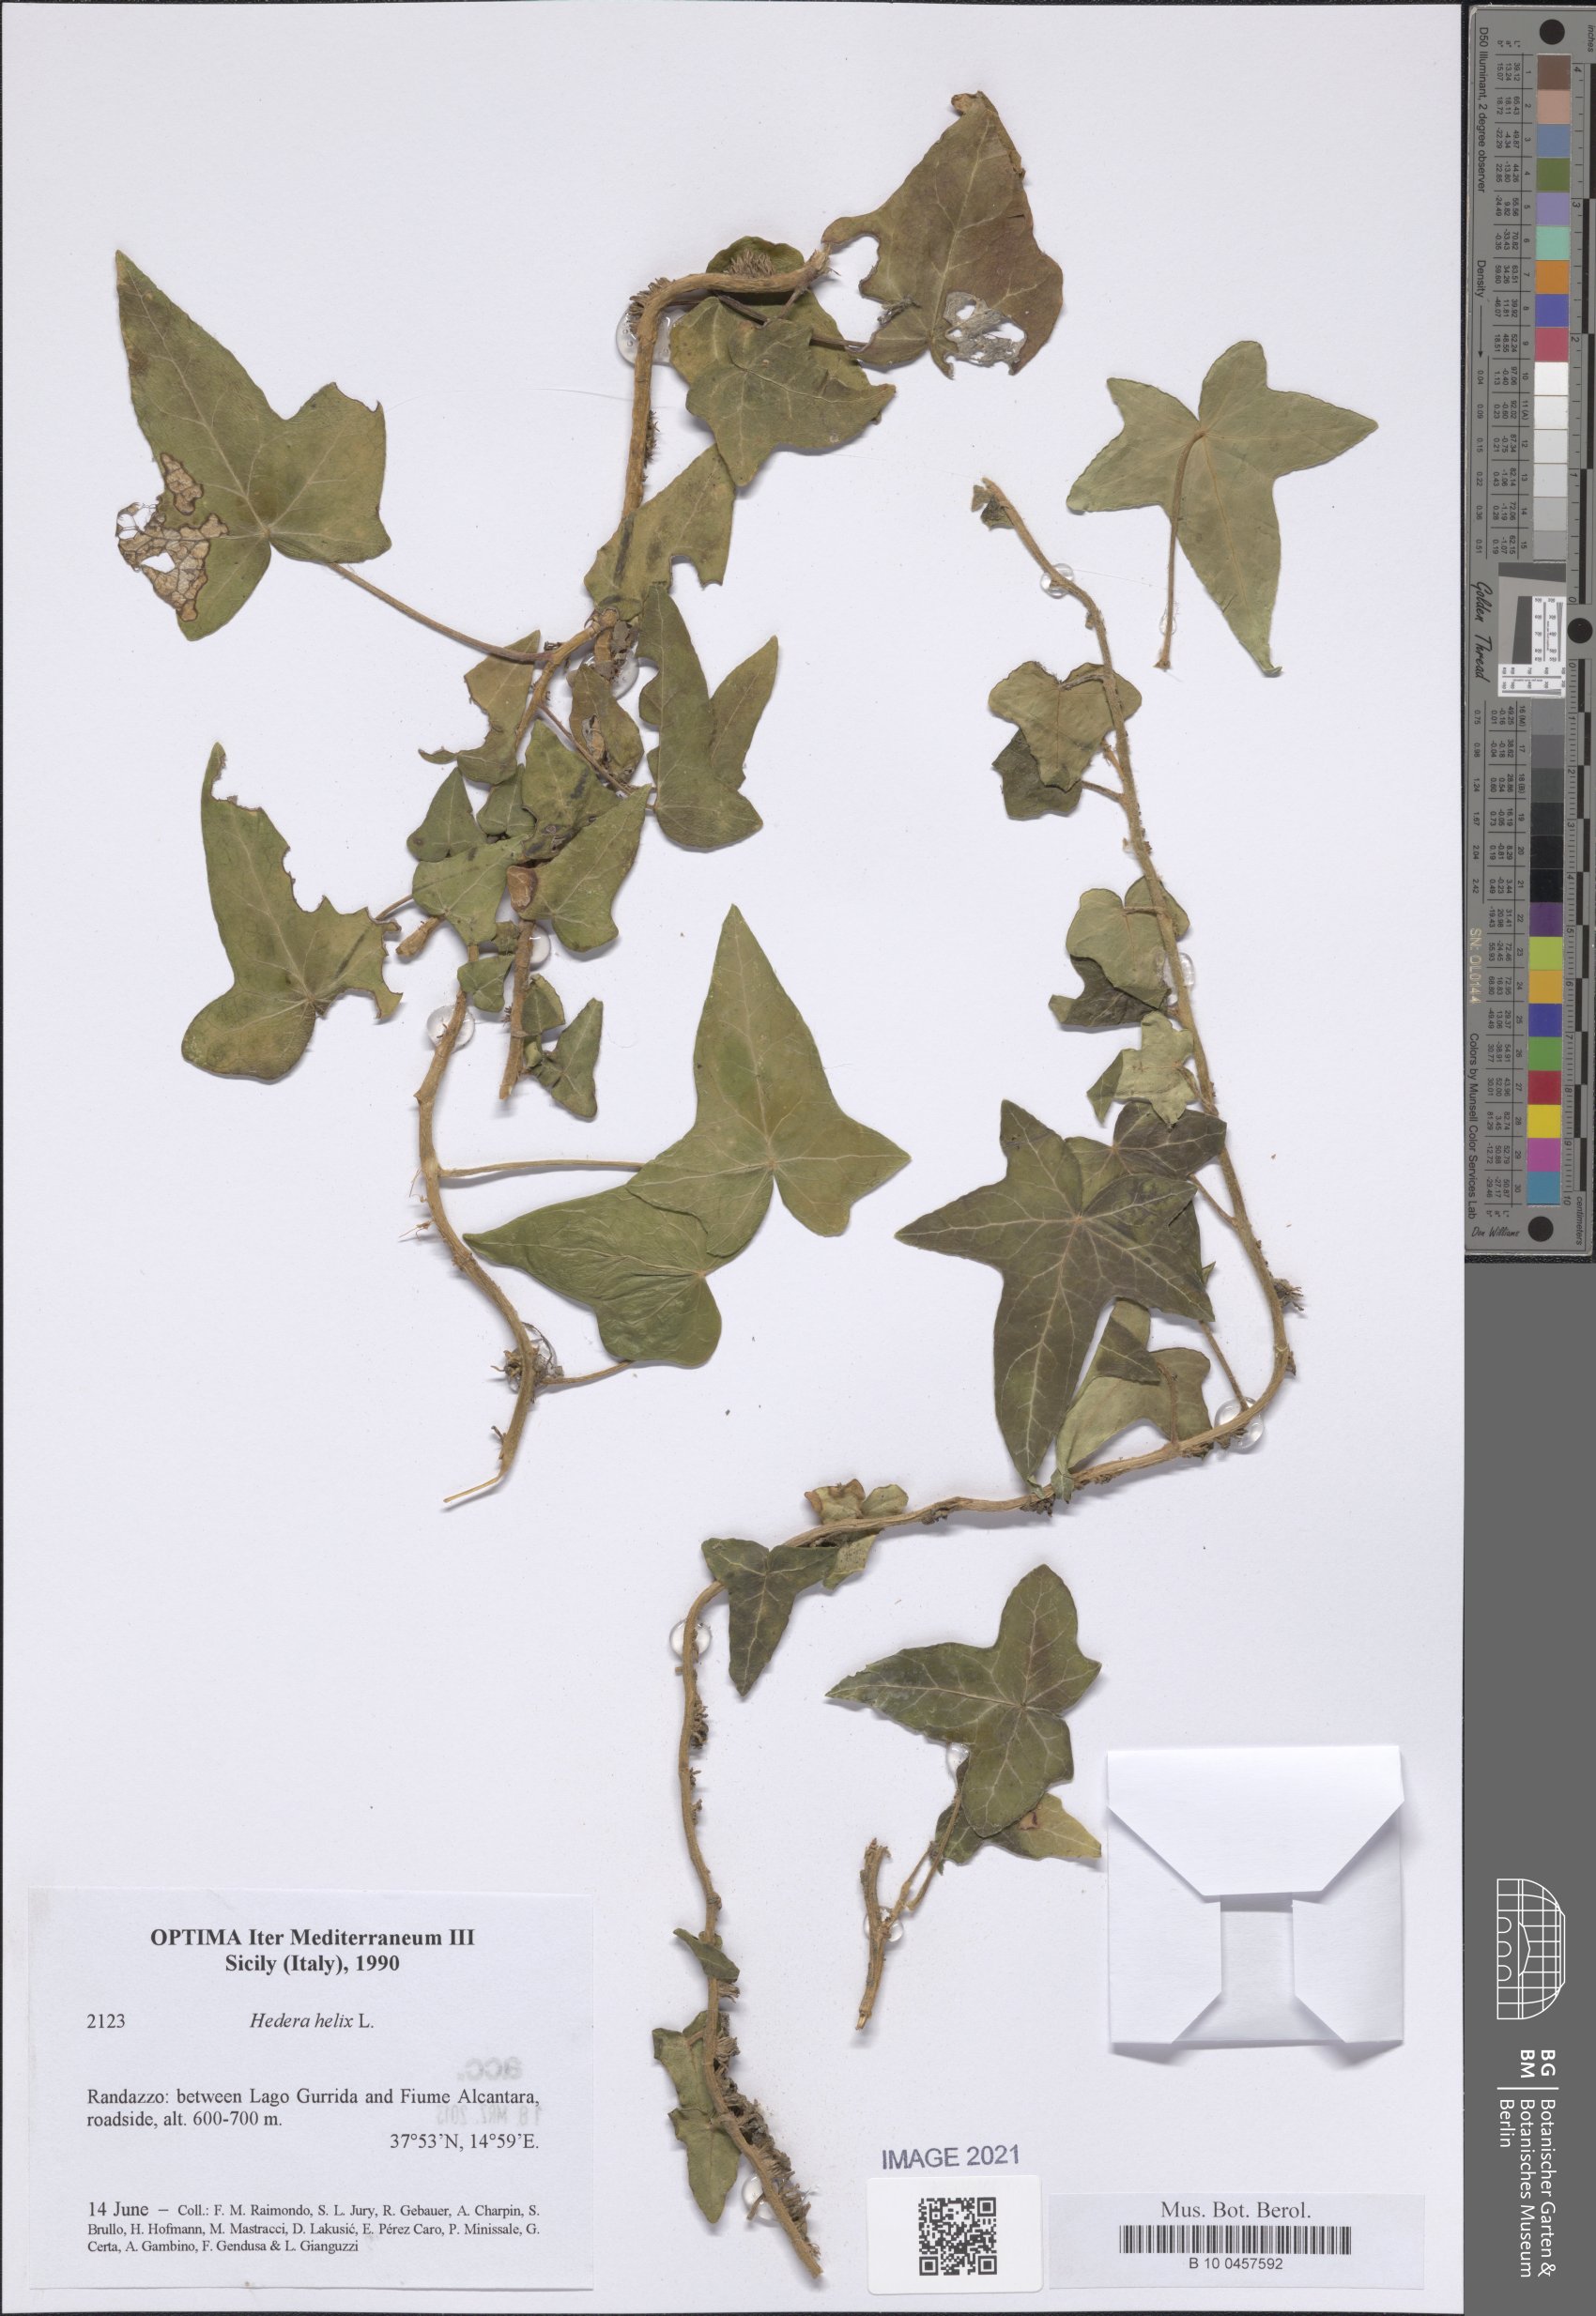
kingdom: Plantae
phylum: Tracheophyta
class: Magnoliopsida
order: Apiales
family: Araliaceae
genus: Hedera
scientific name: Hedera helix
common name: Ivy
